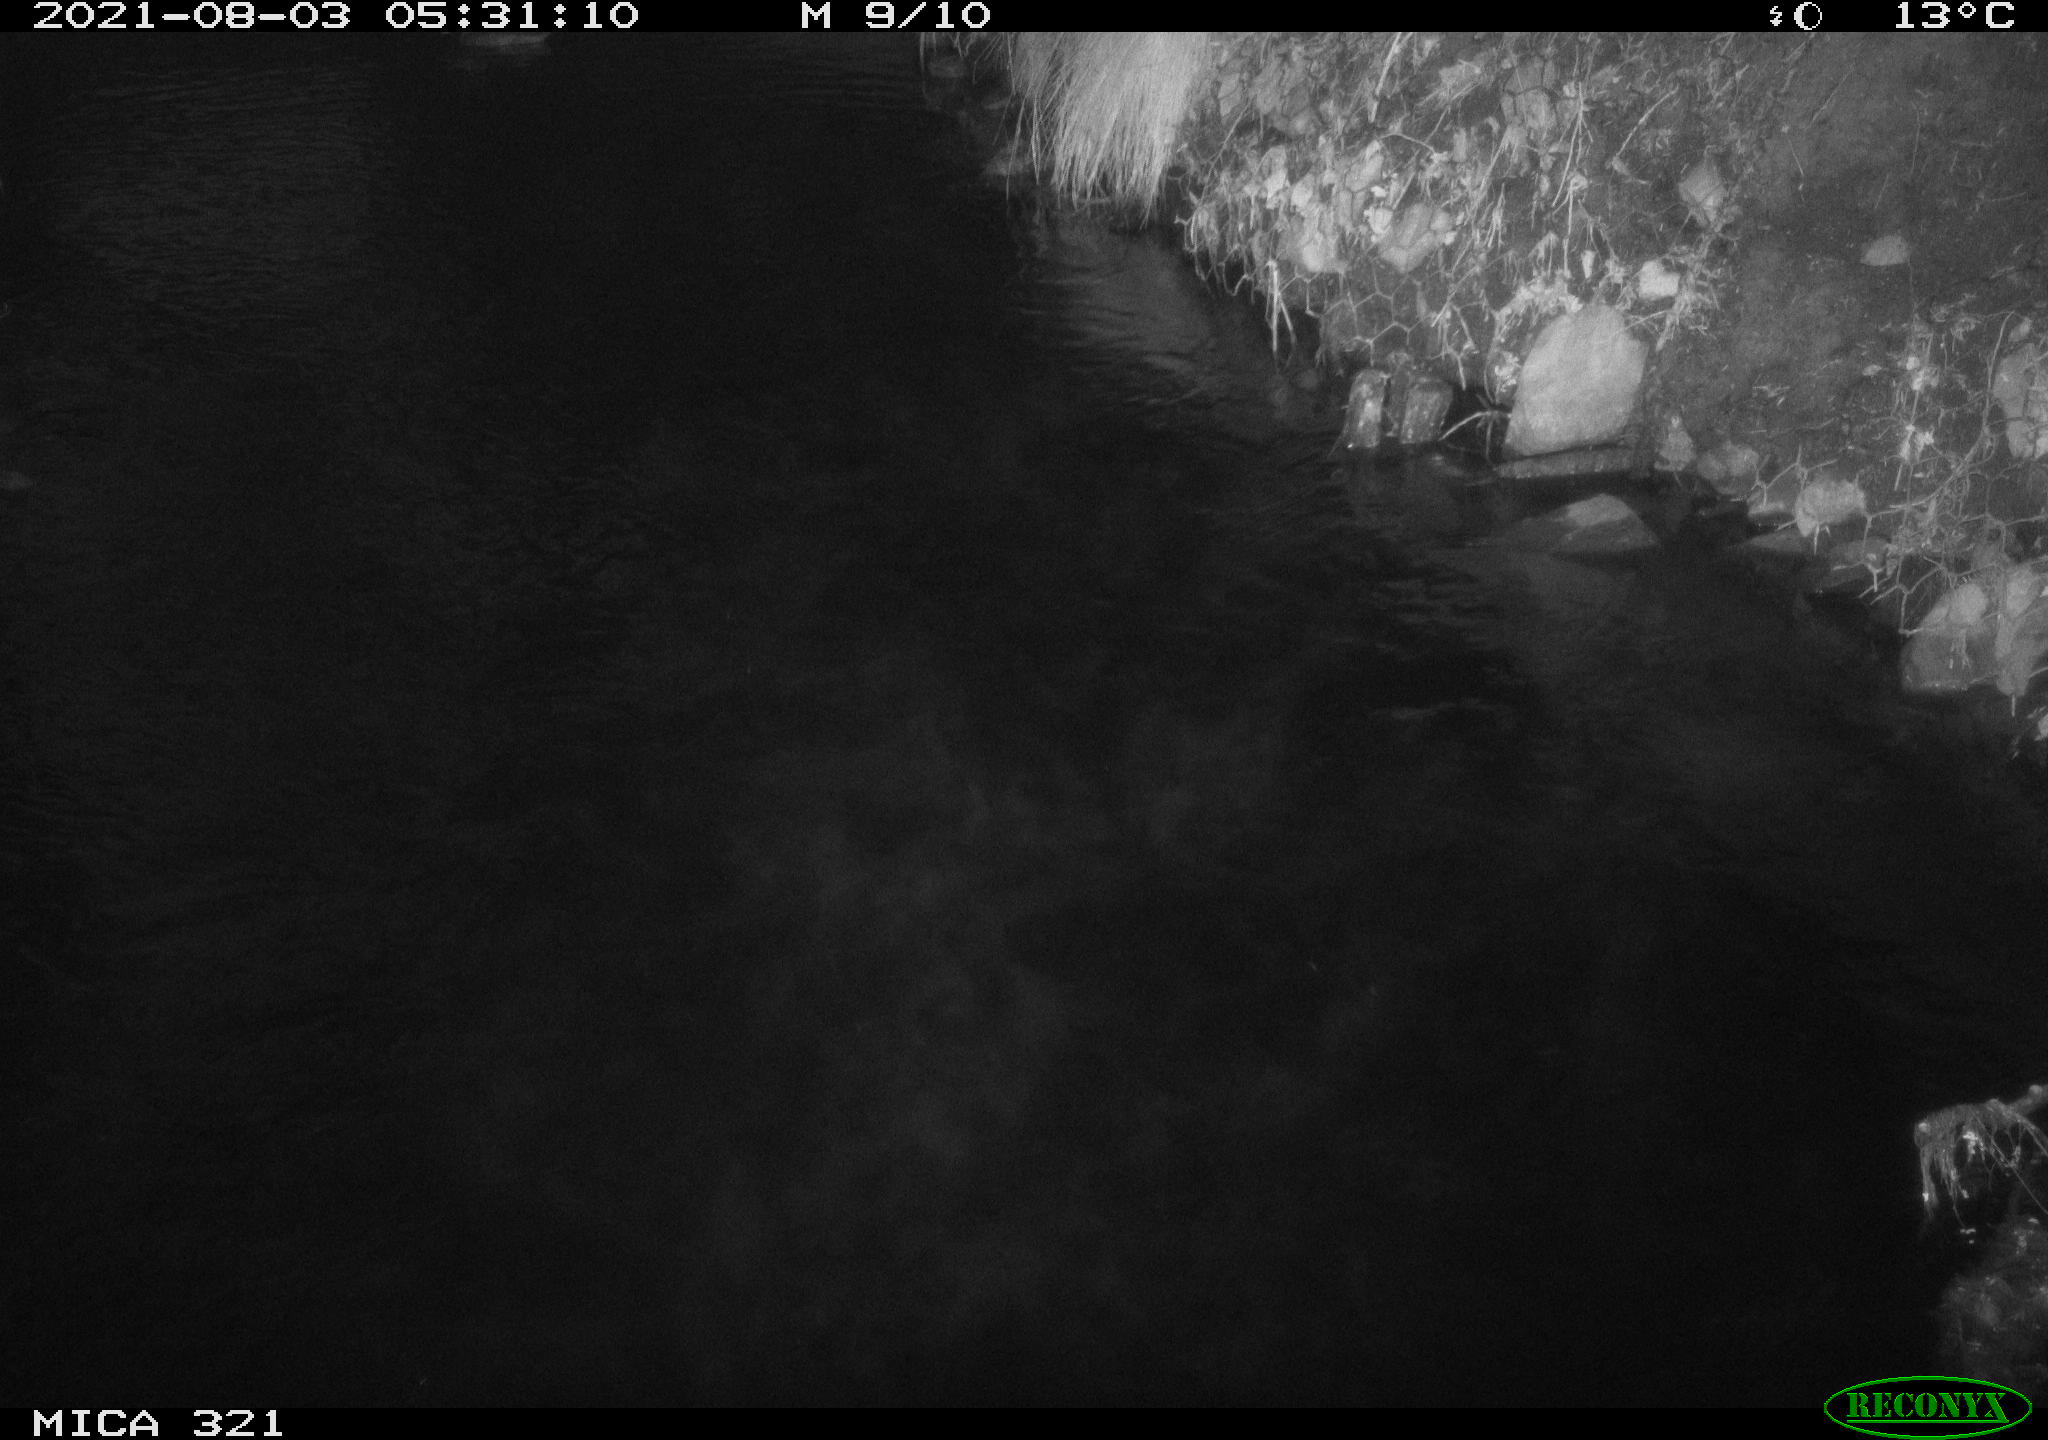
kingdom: Animalia
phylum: Chordata
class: Aves
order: Anseriformes
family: Anatidae
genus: Anas
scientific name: Anas platyrhynchos
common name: Mallard
